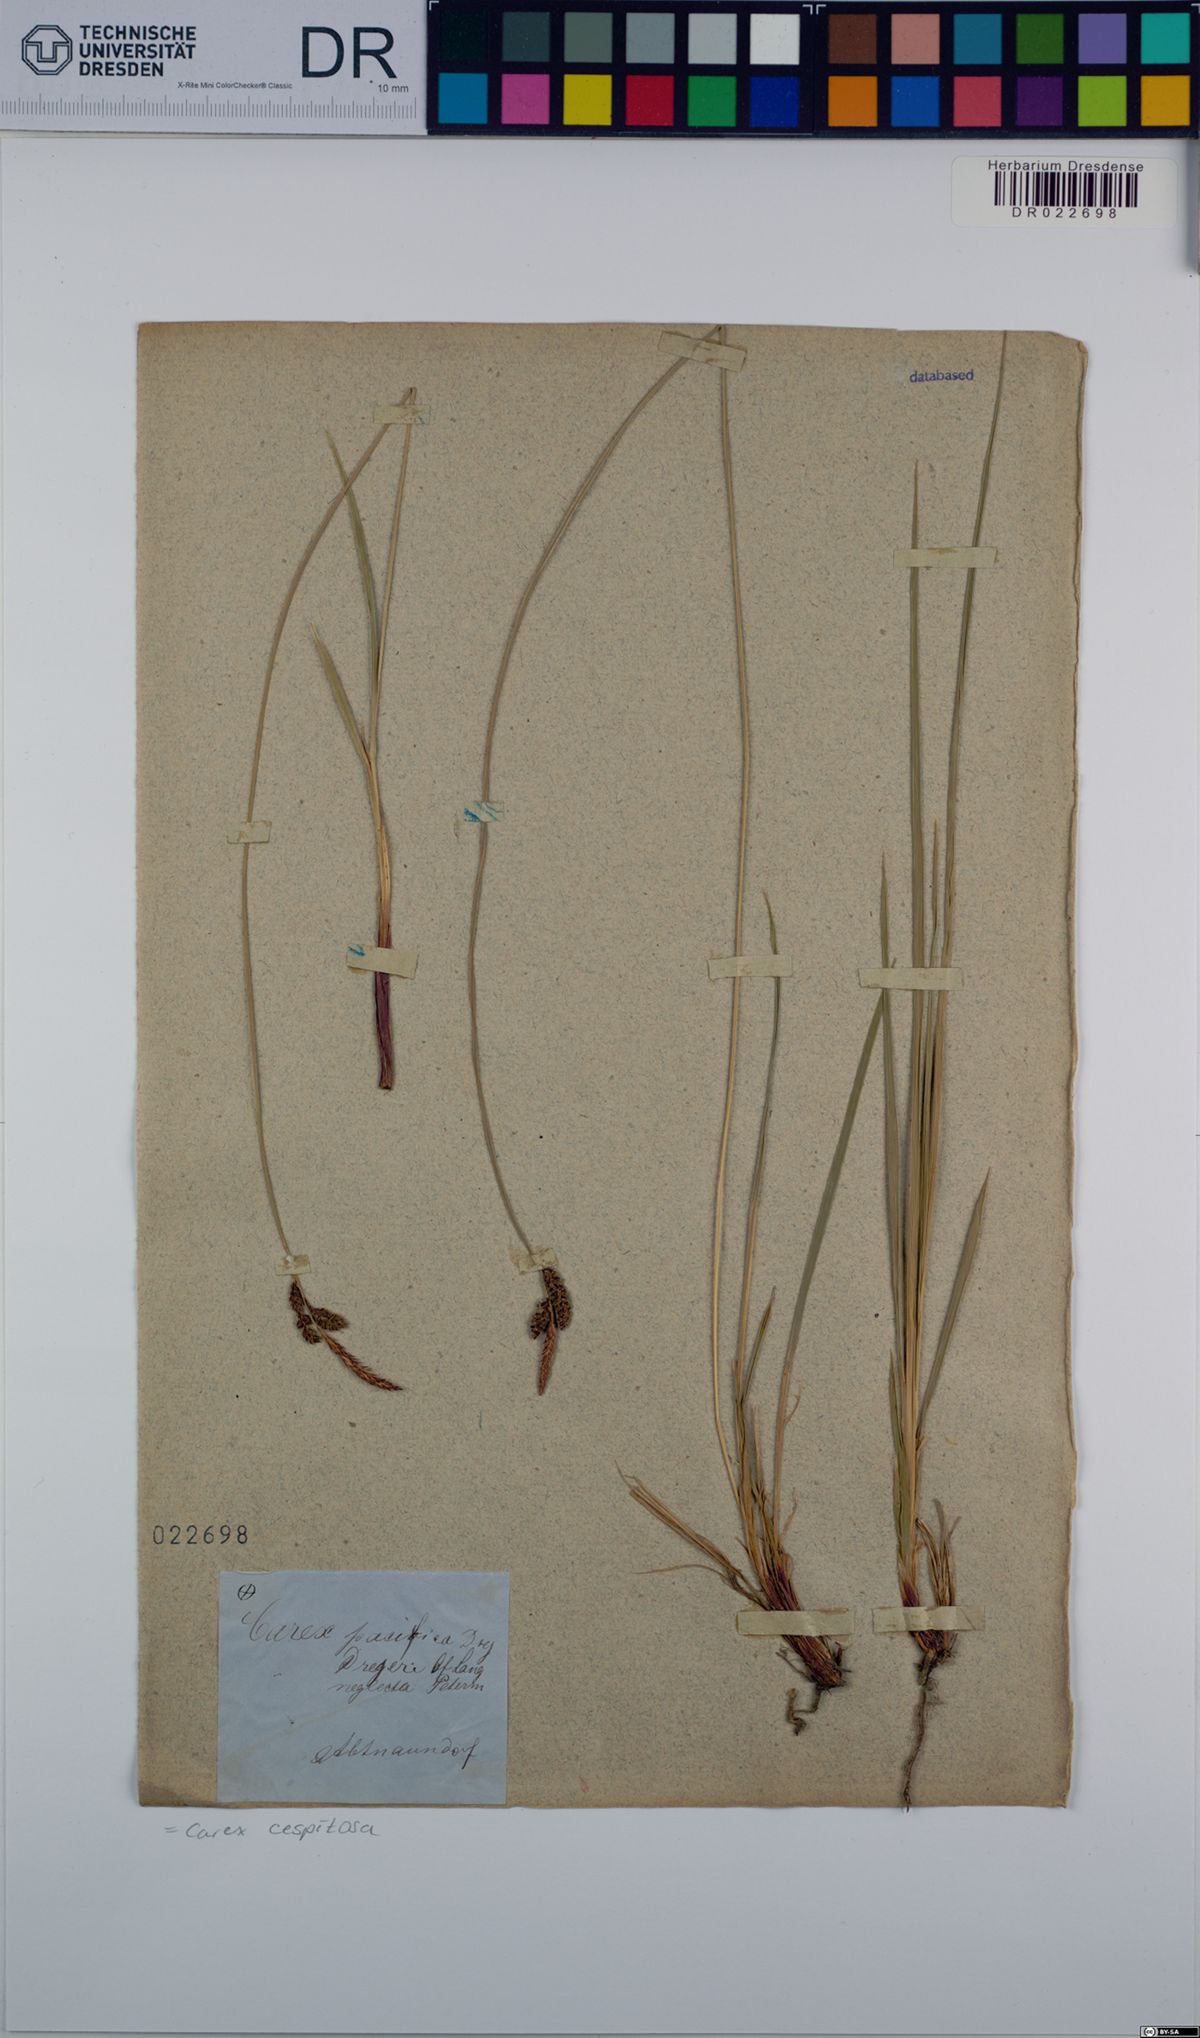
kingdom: Plantae
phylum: Tracheophyta
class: Liliopsida
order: Poales
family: Cyperaceae
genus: Carex
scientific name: Carex cespitosa
